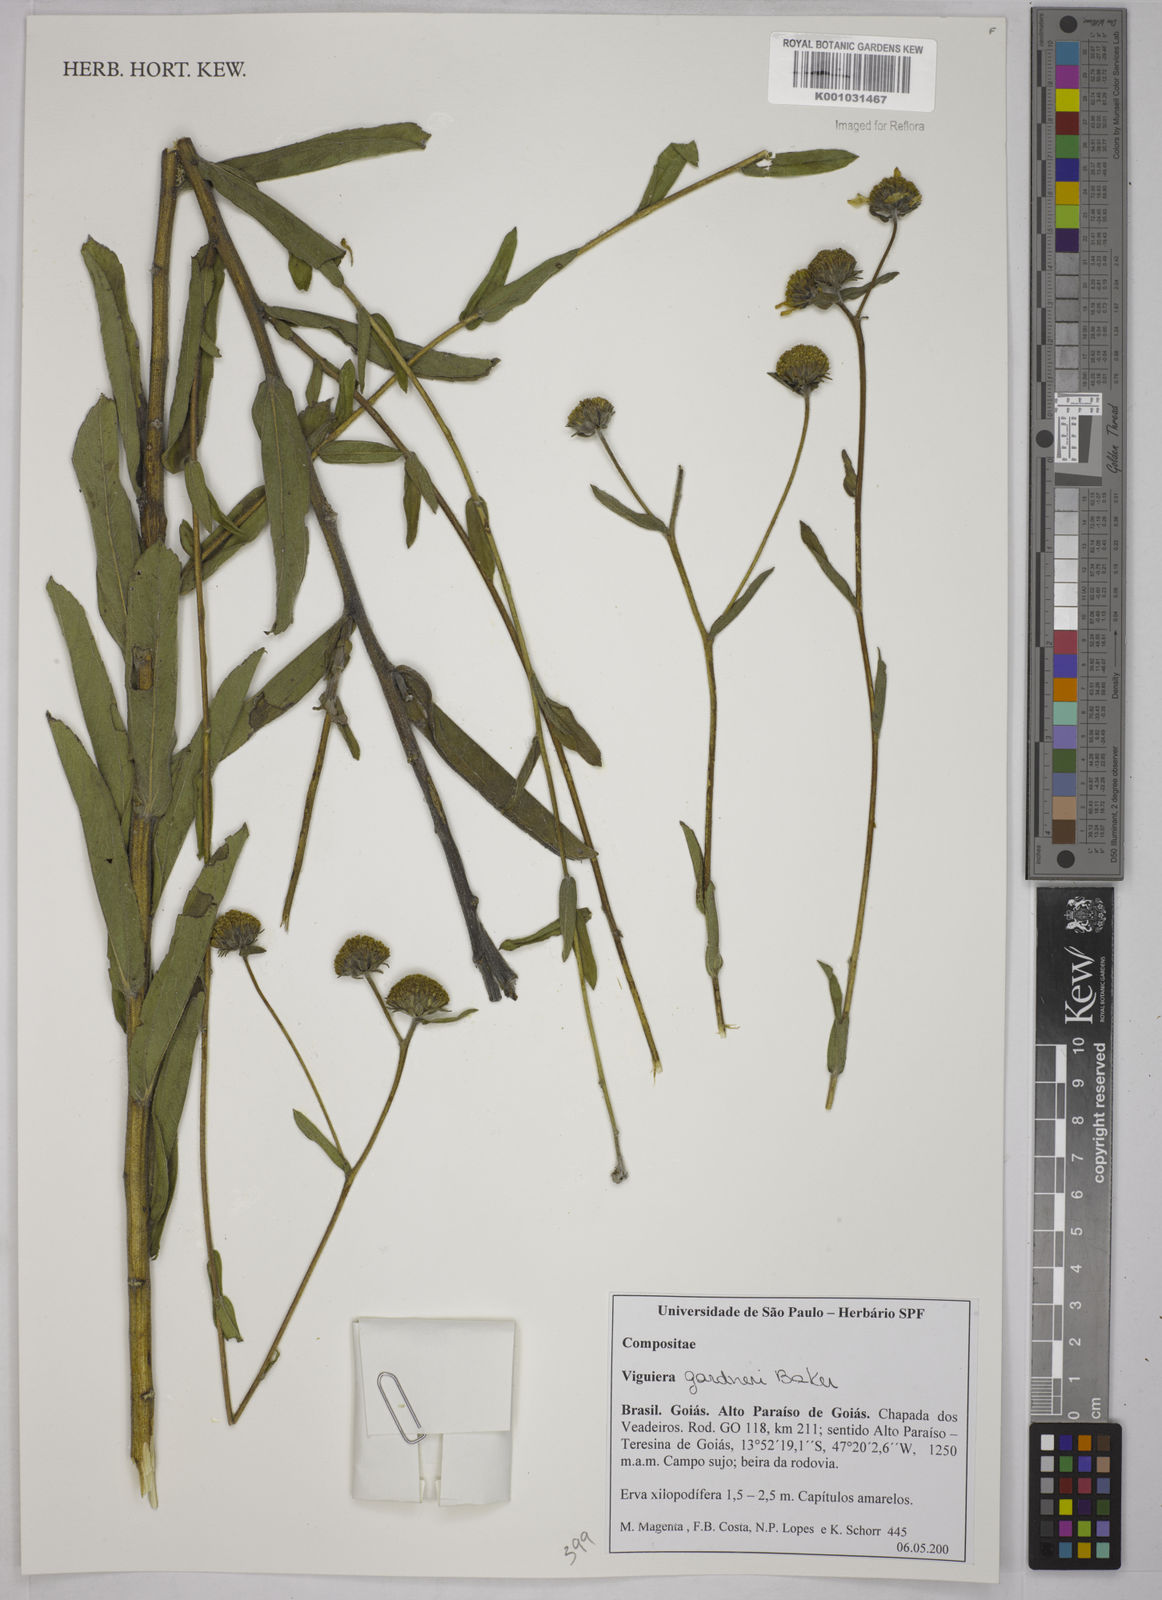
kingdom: Plantae
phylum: Tracheophyta
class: Magnoliopsida
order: Asterales
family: Asteraceae
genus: Aldama
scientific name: Aldama gardneri
